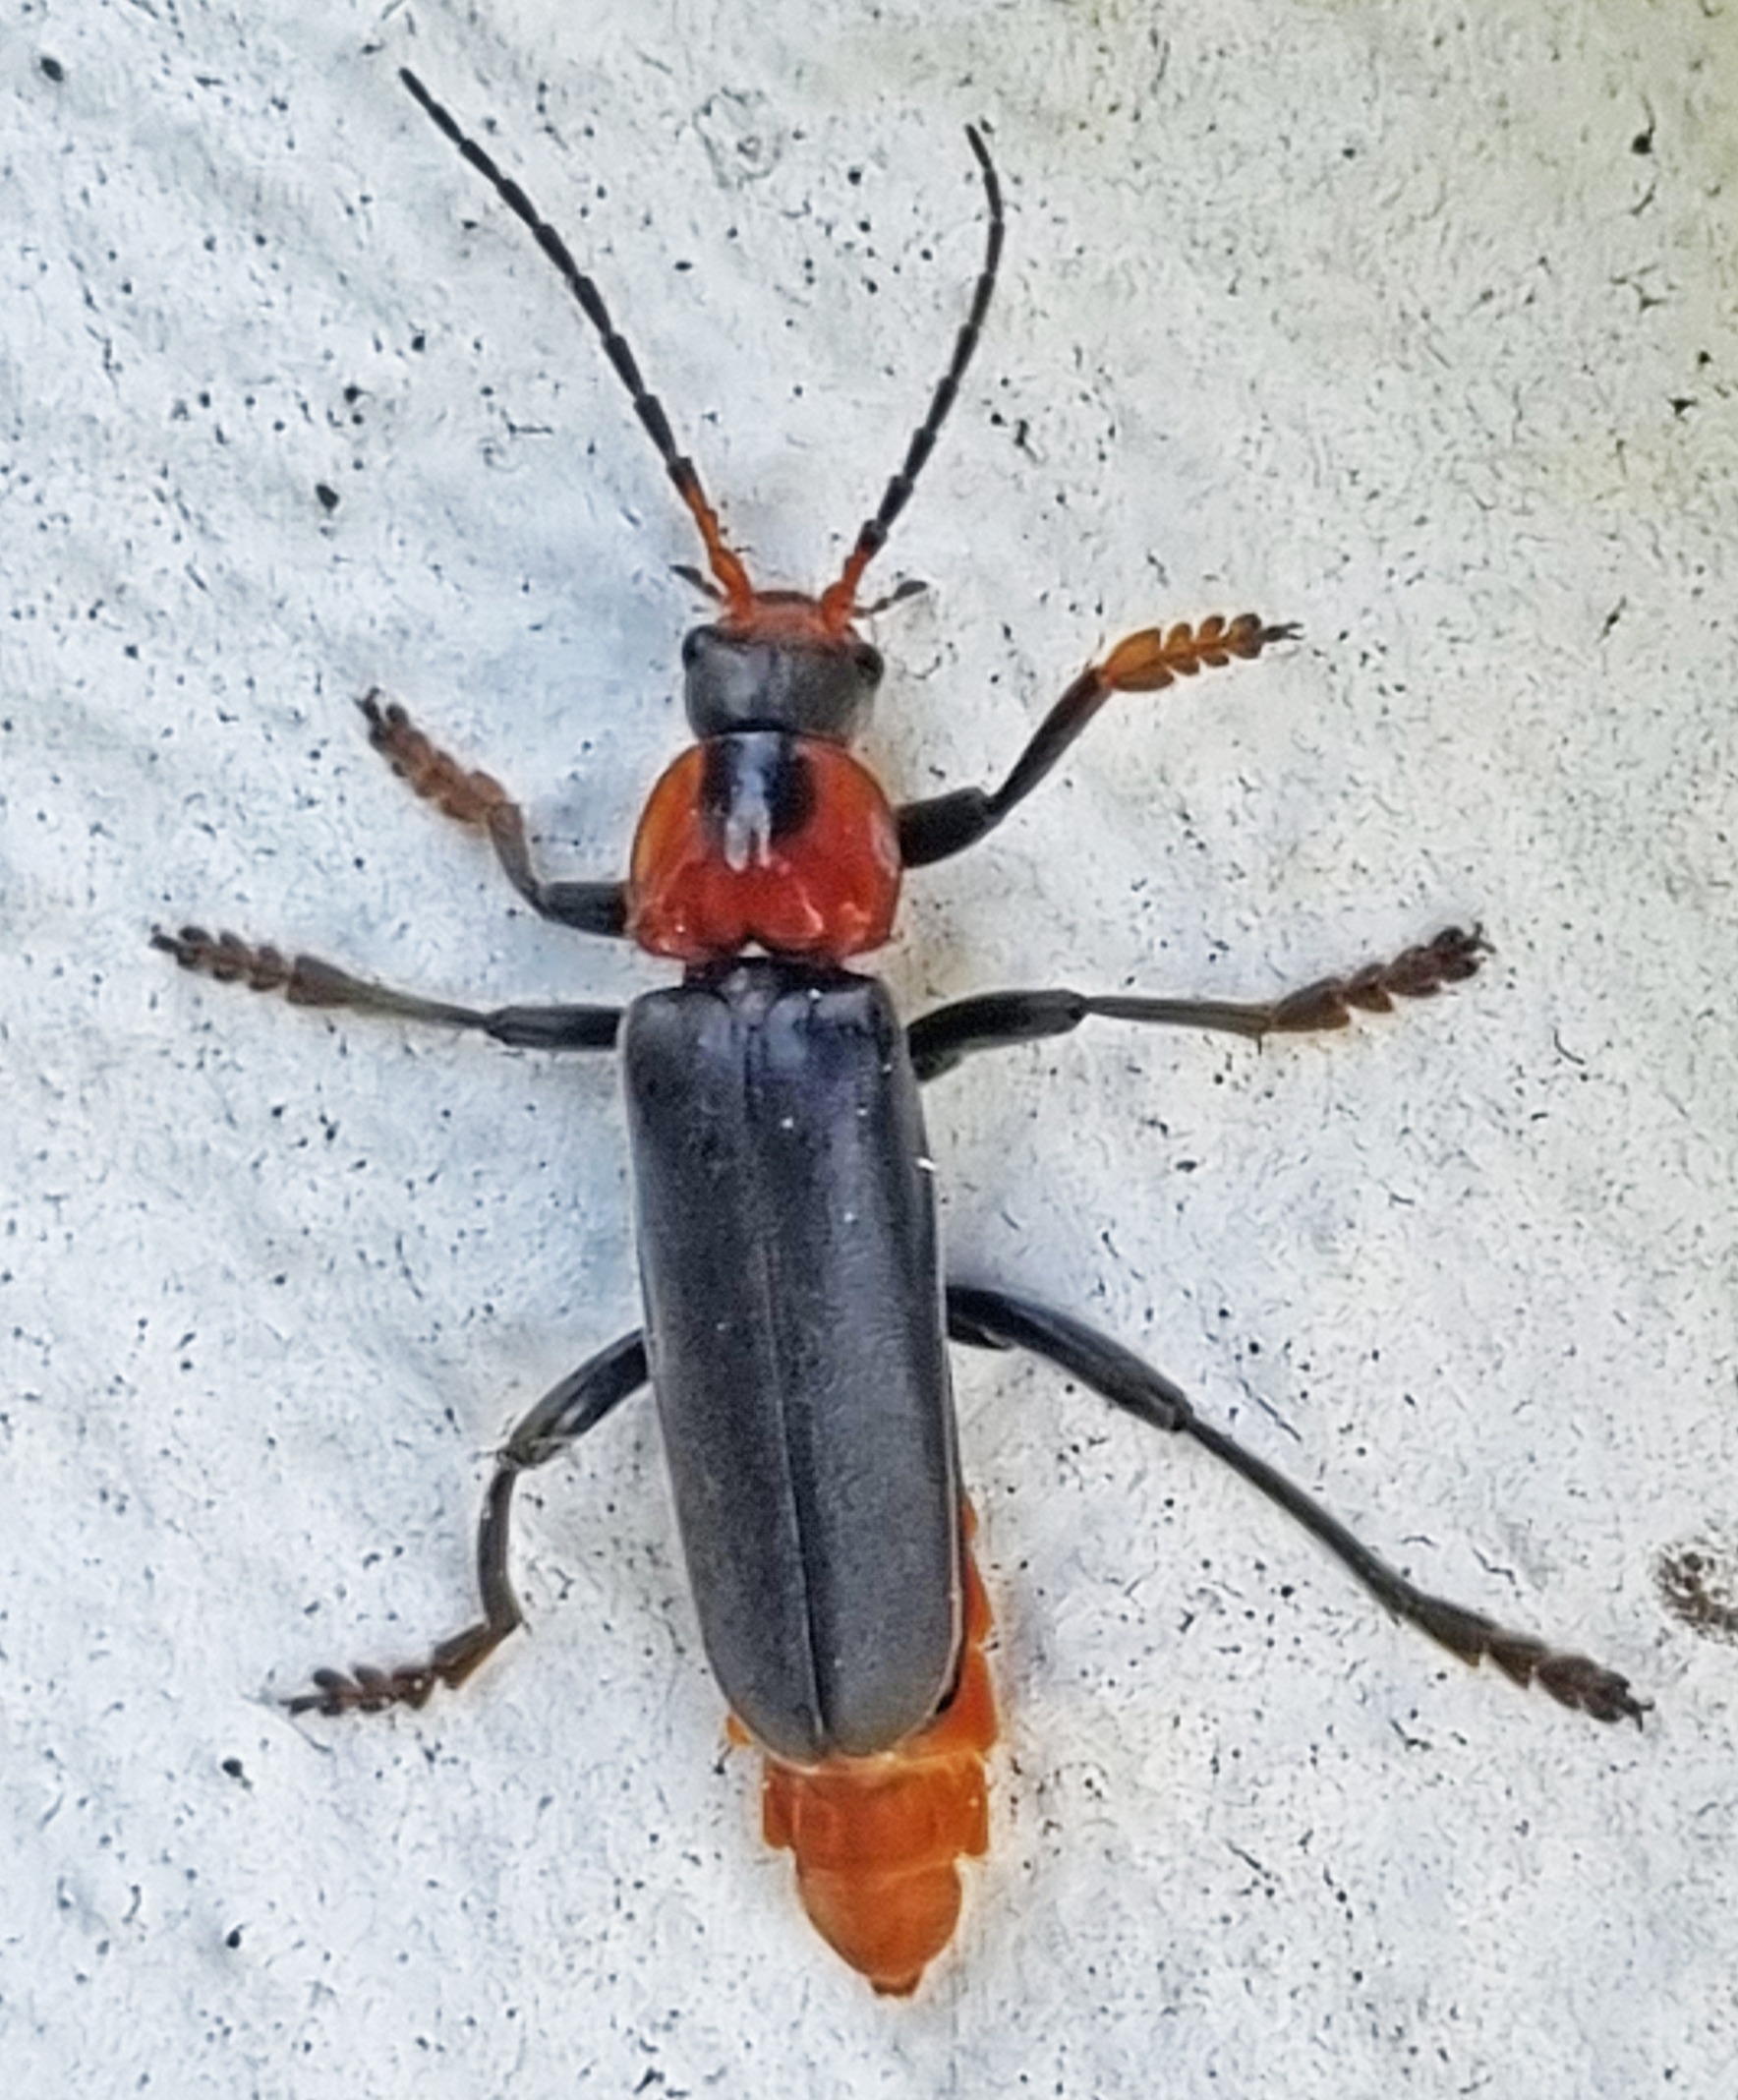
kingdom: Animalia
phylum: Arthropoda
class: Insecta
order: Coleoptera
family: Cantharidae
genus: Cantharis
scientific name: Cantharis fusca
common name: Stor blødvinge
